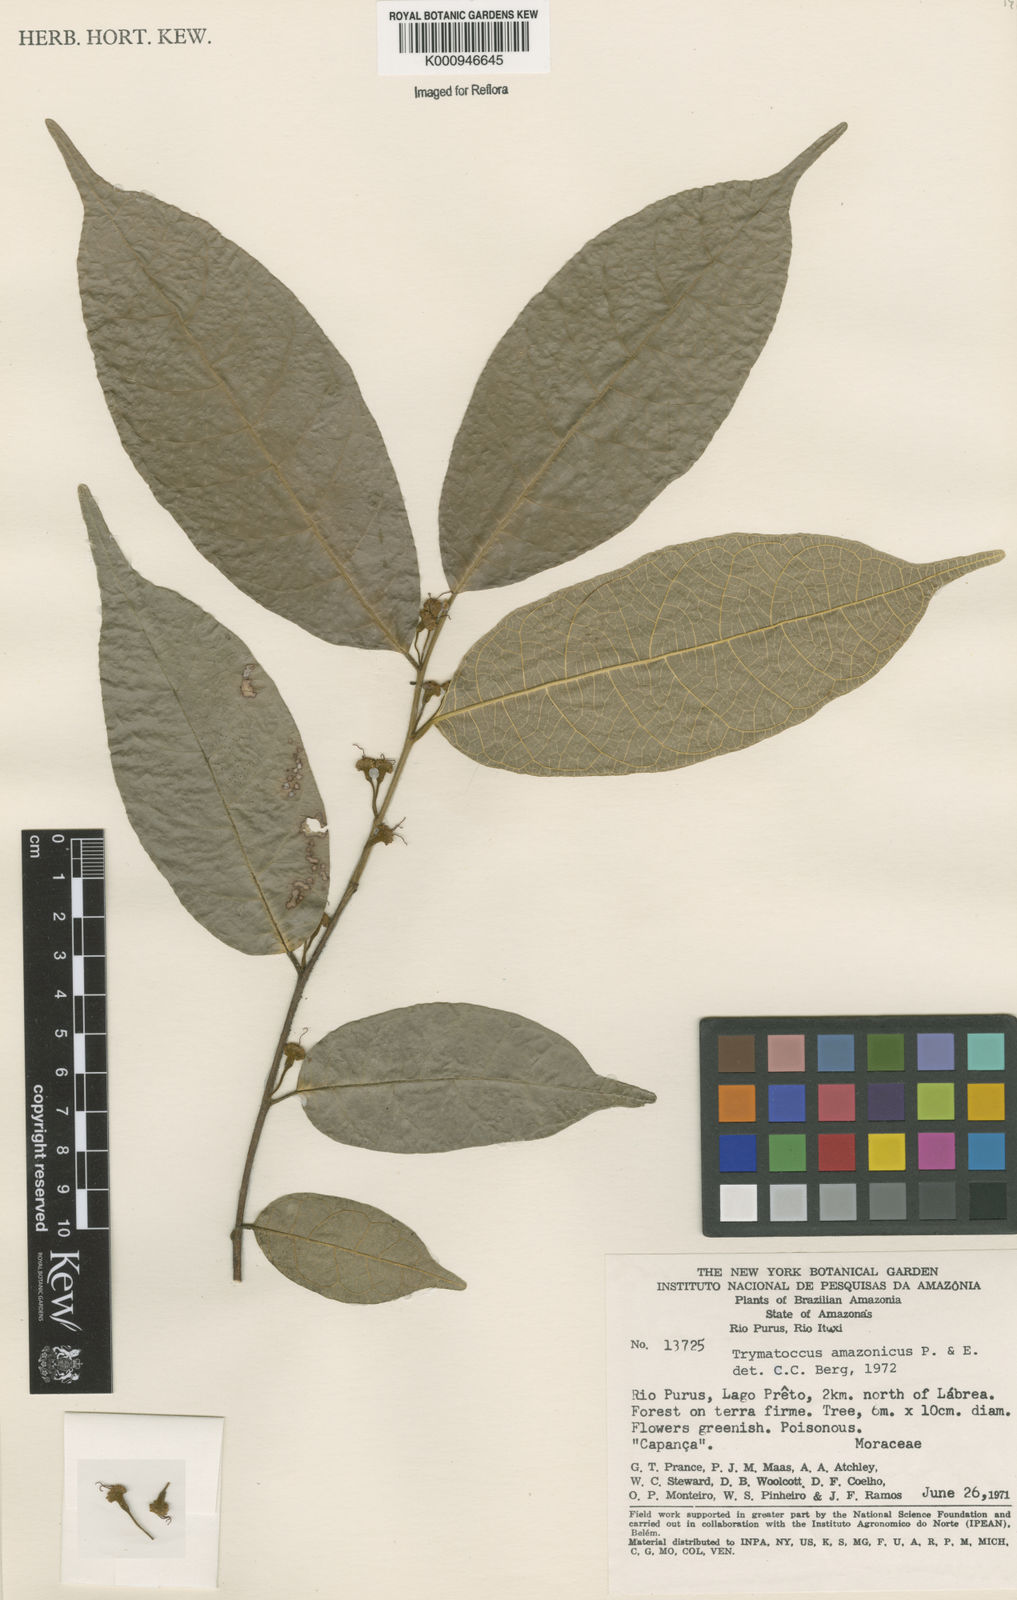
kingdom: Plantae
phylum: Tracheophyta
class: Magnoliopsida
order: Rosales
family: Moraceae
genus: Brosimum
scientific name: Brosimum amazonicum
